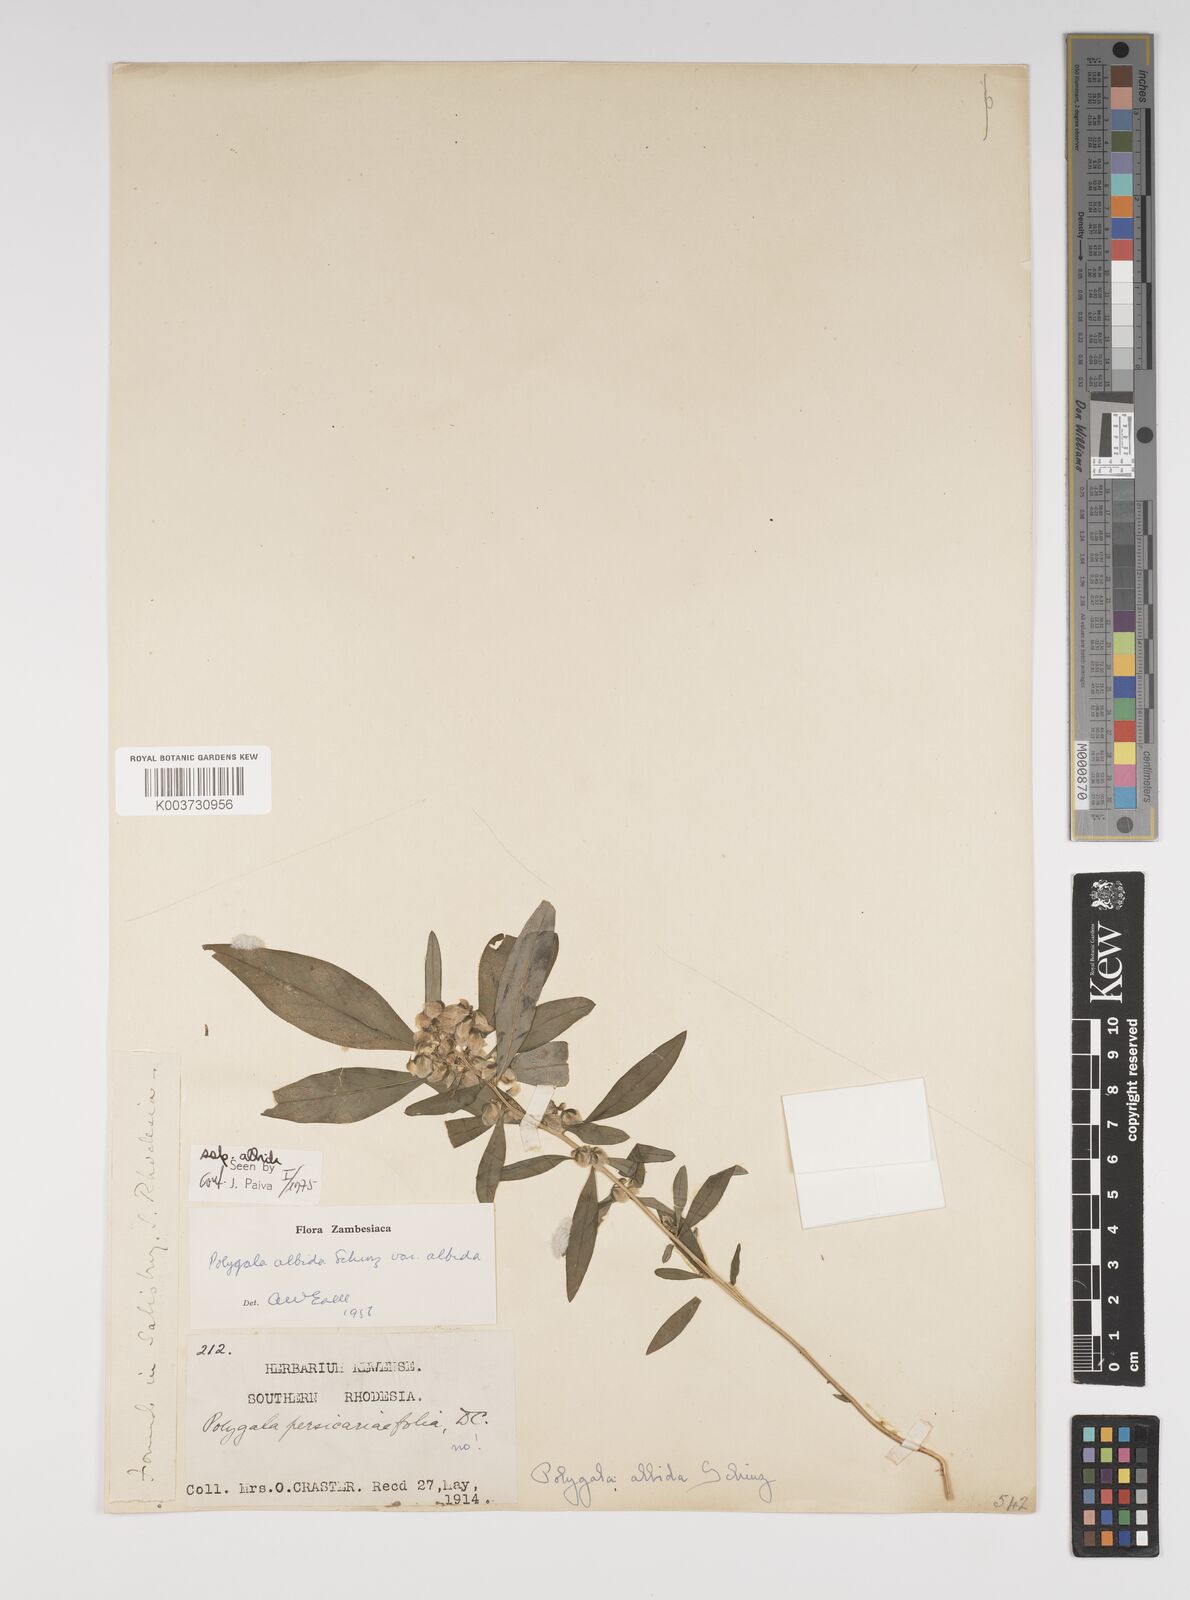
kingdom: Plantae
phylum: Tracheophyta
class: Magnoliopsida
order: Fabales
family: Polygalaceae
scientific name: Polygalaceae
